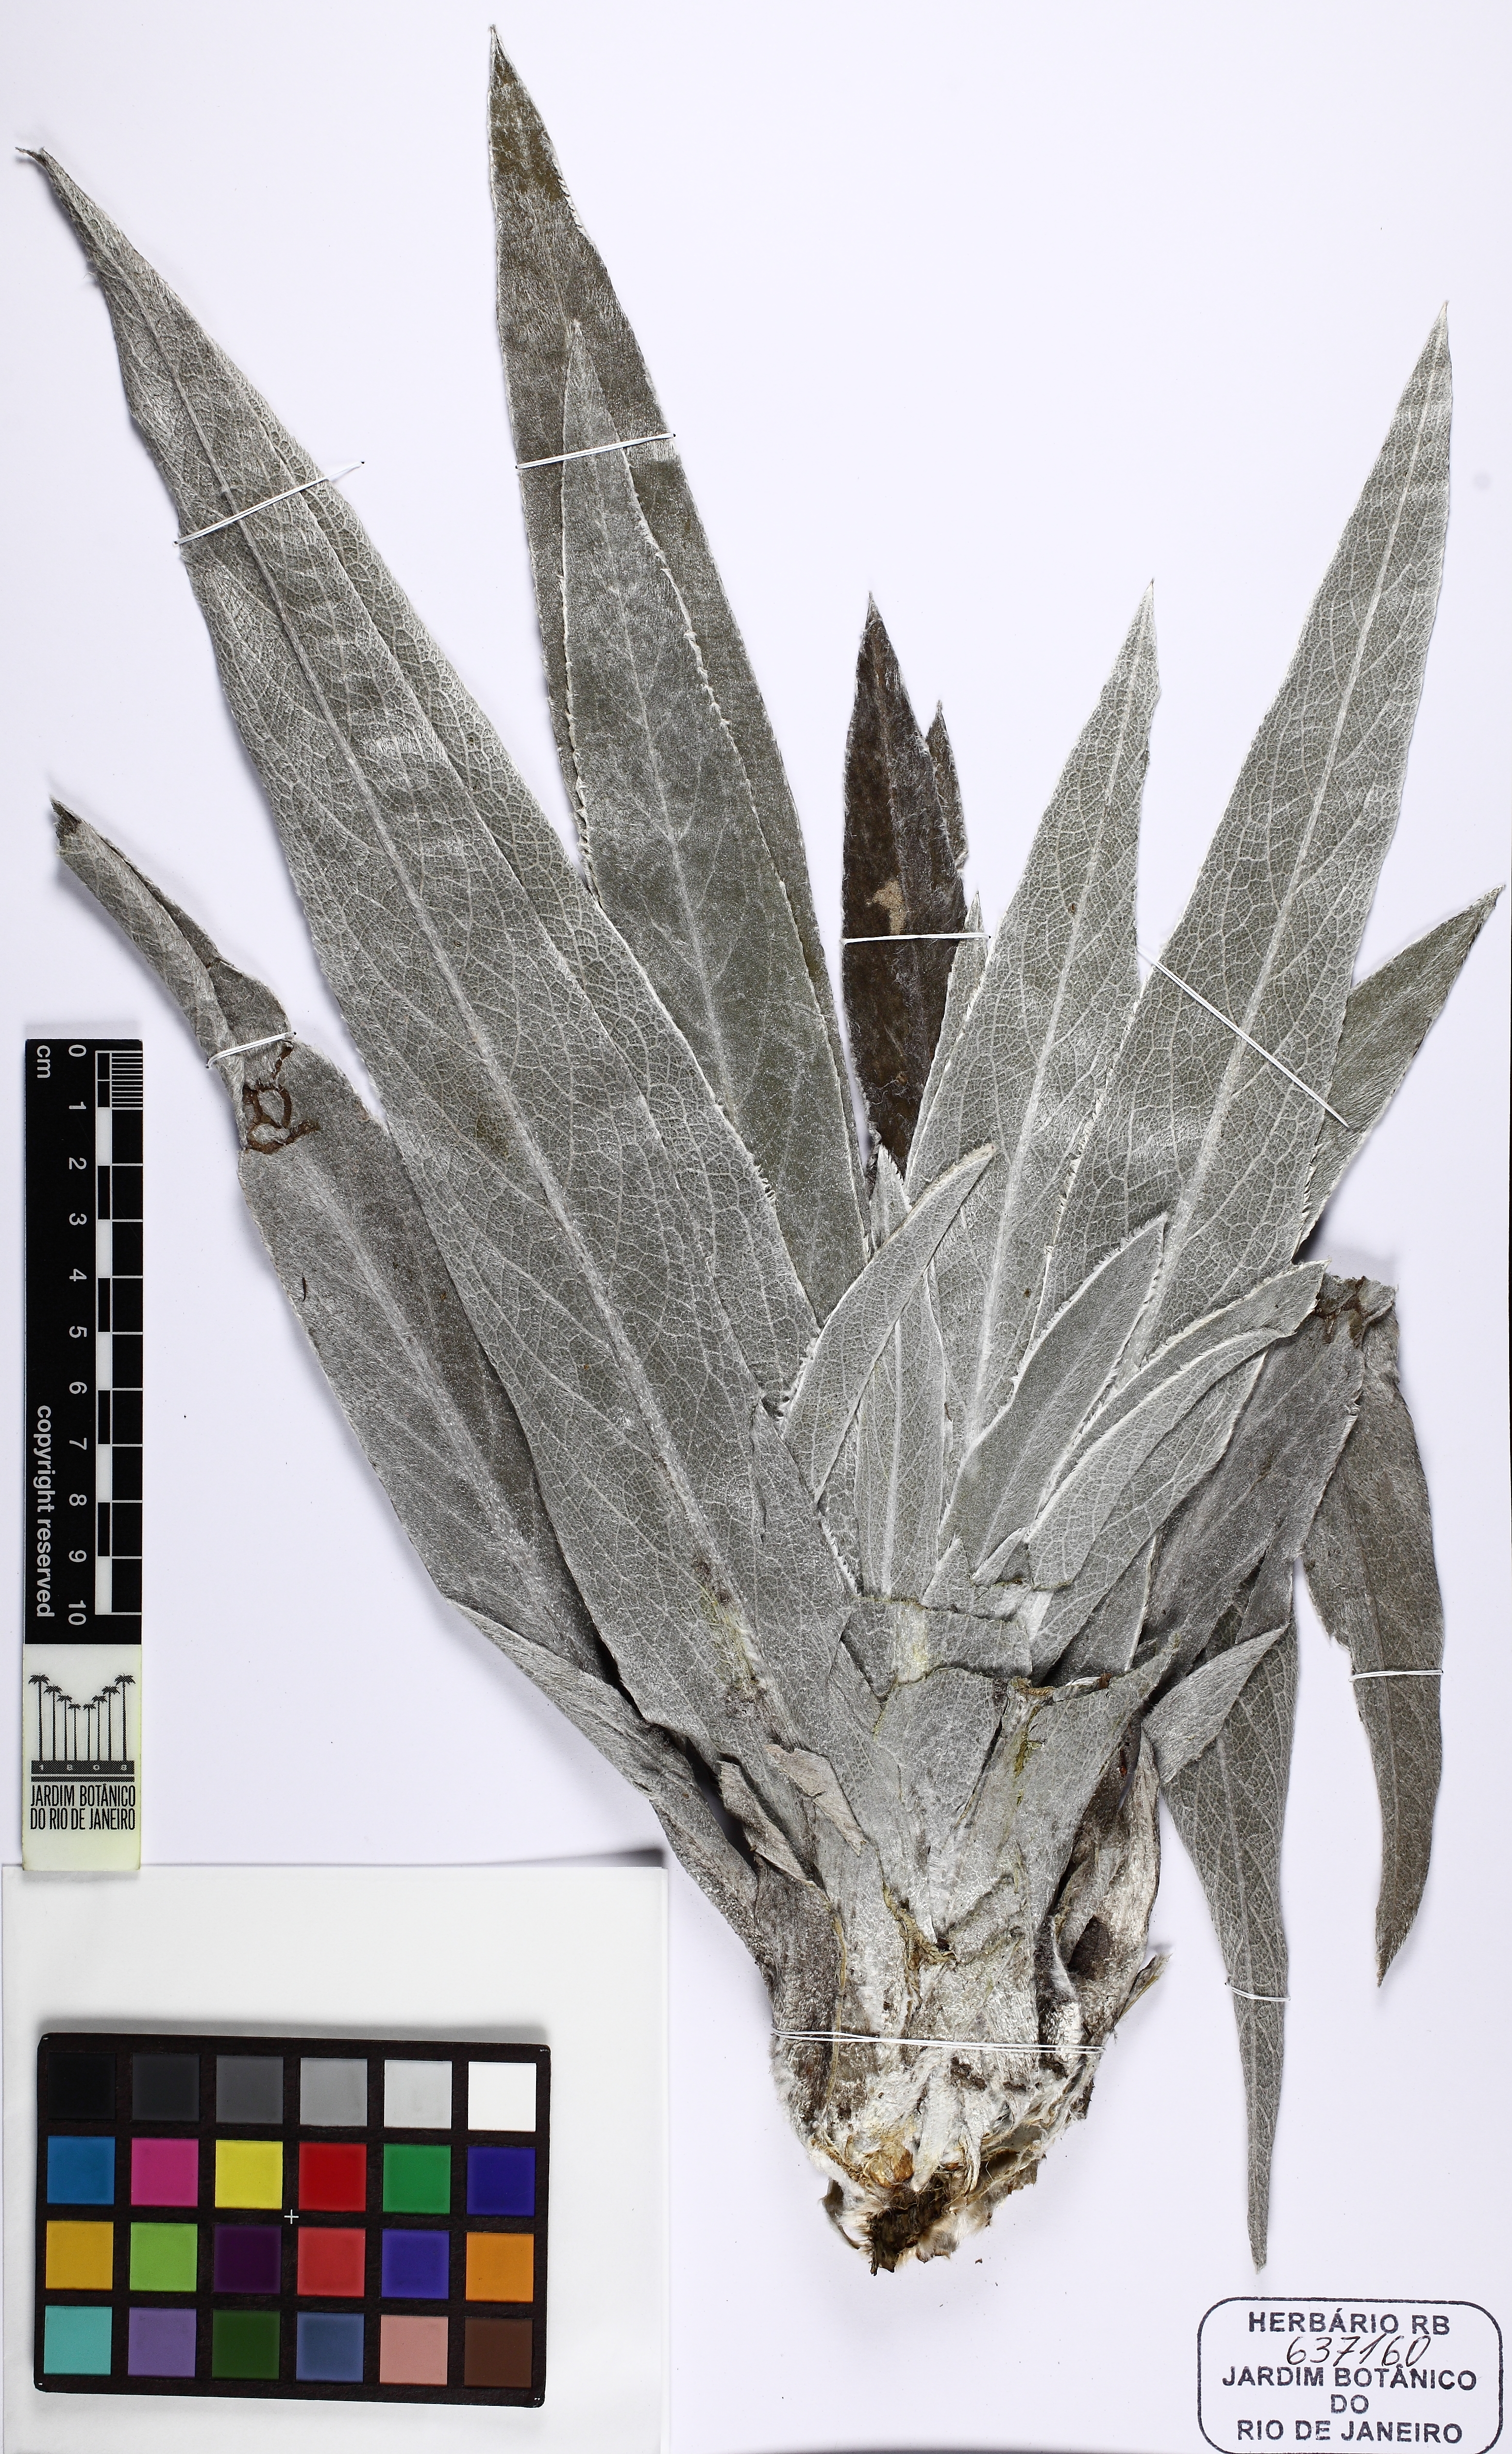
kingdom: Plantae
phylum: Tracheophyta
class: Magnoliopsida
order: Asterales
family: Asteraceae
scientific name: Asteraceae
